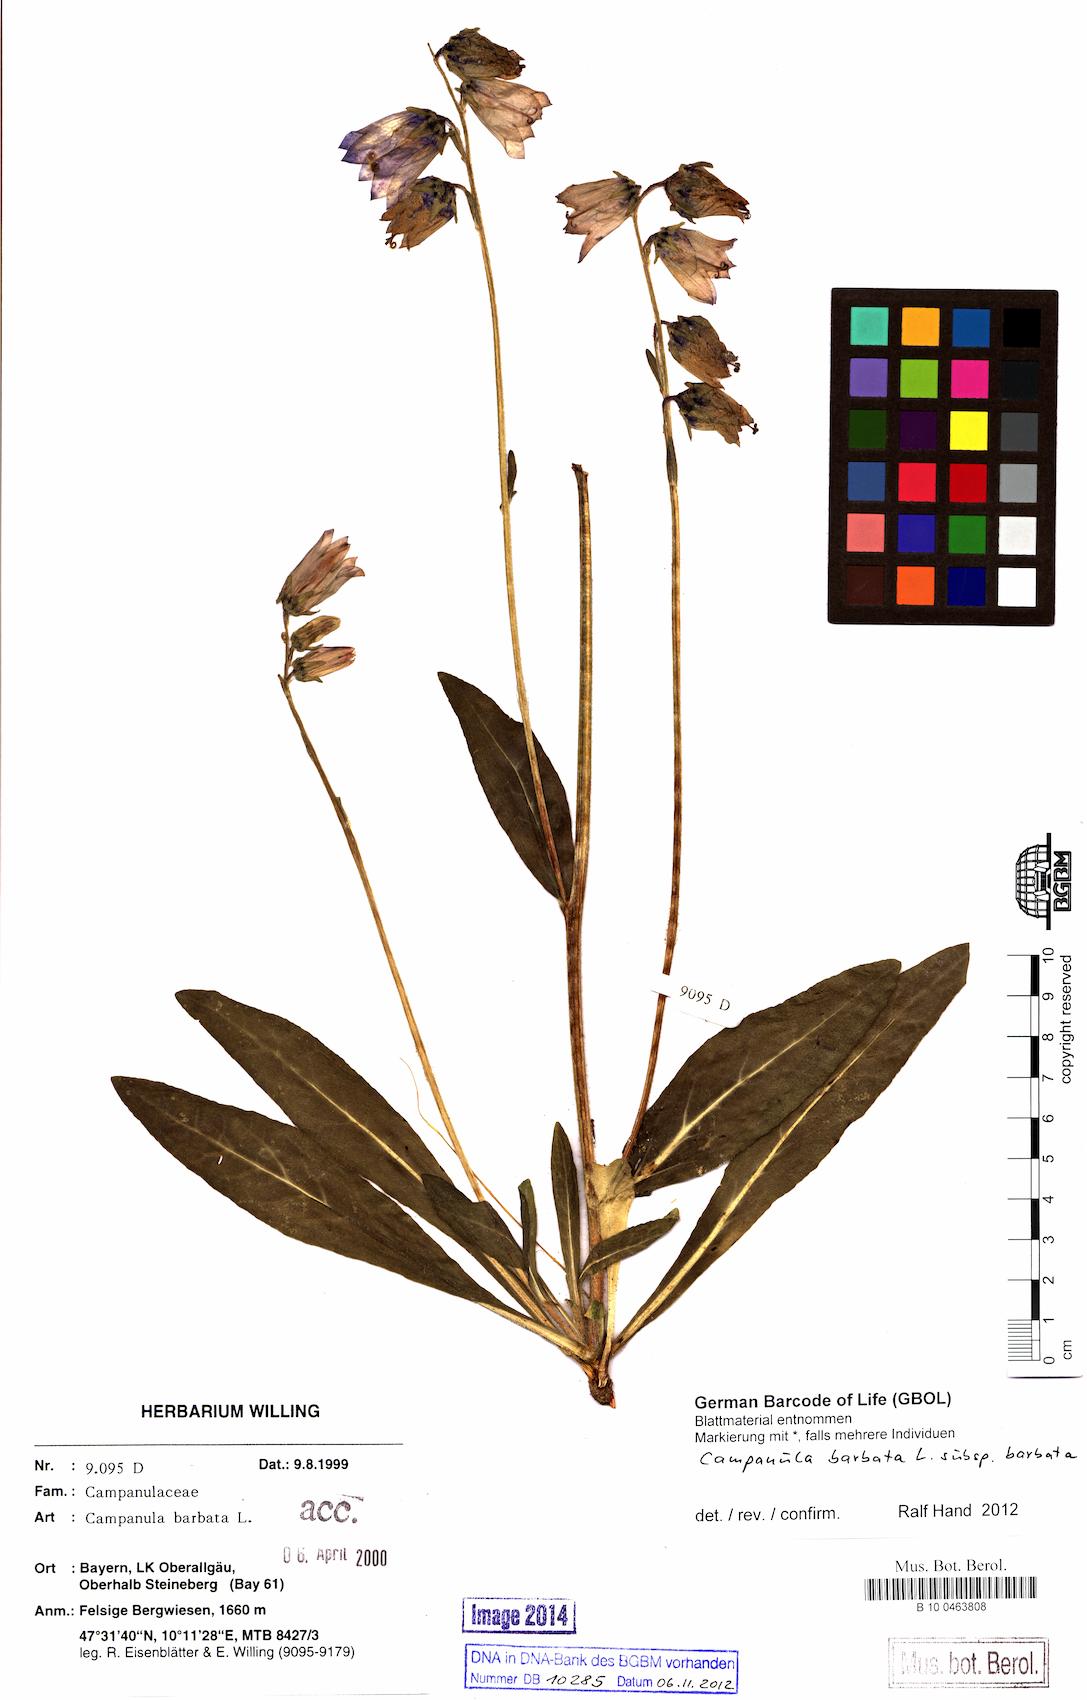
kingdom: Plantae
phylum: Tracheophyta
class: Magnoliopsida
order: Asterales
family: Campanulaceae
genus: Campanula
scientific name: Campanula barbata
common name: Bearded bellflower
